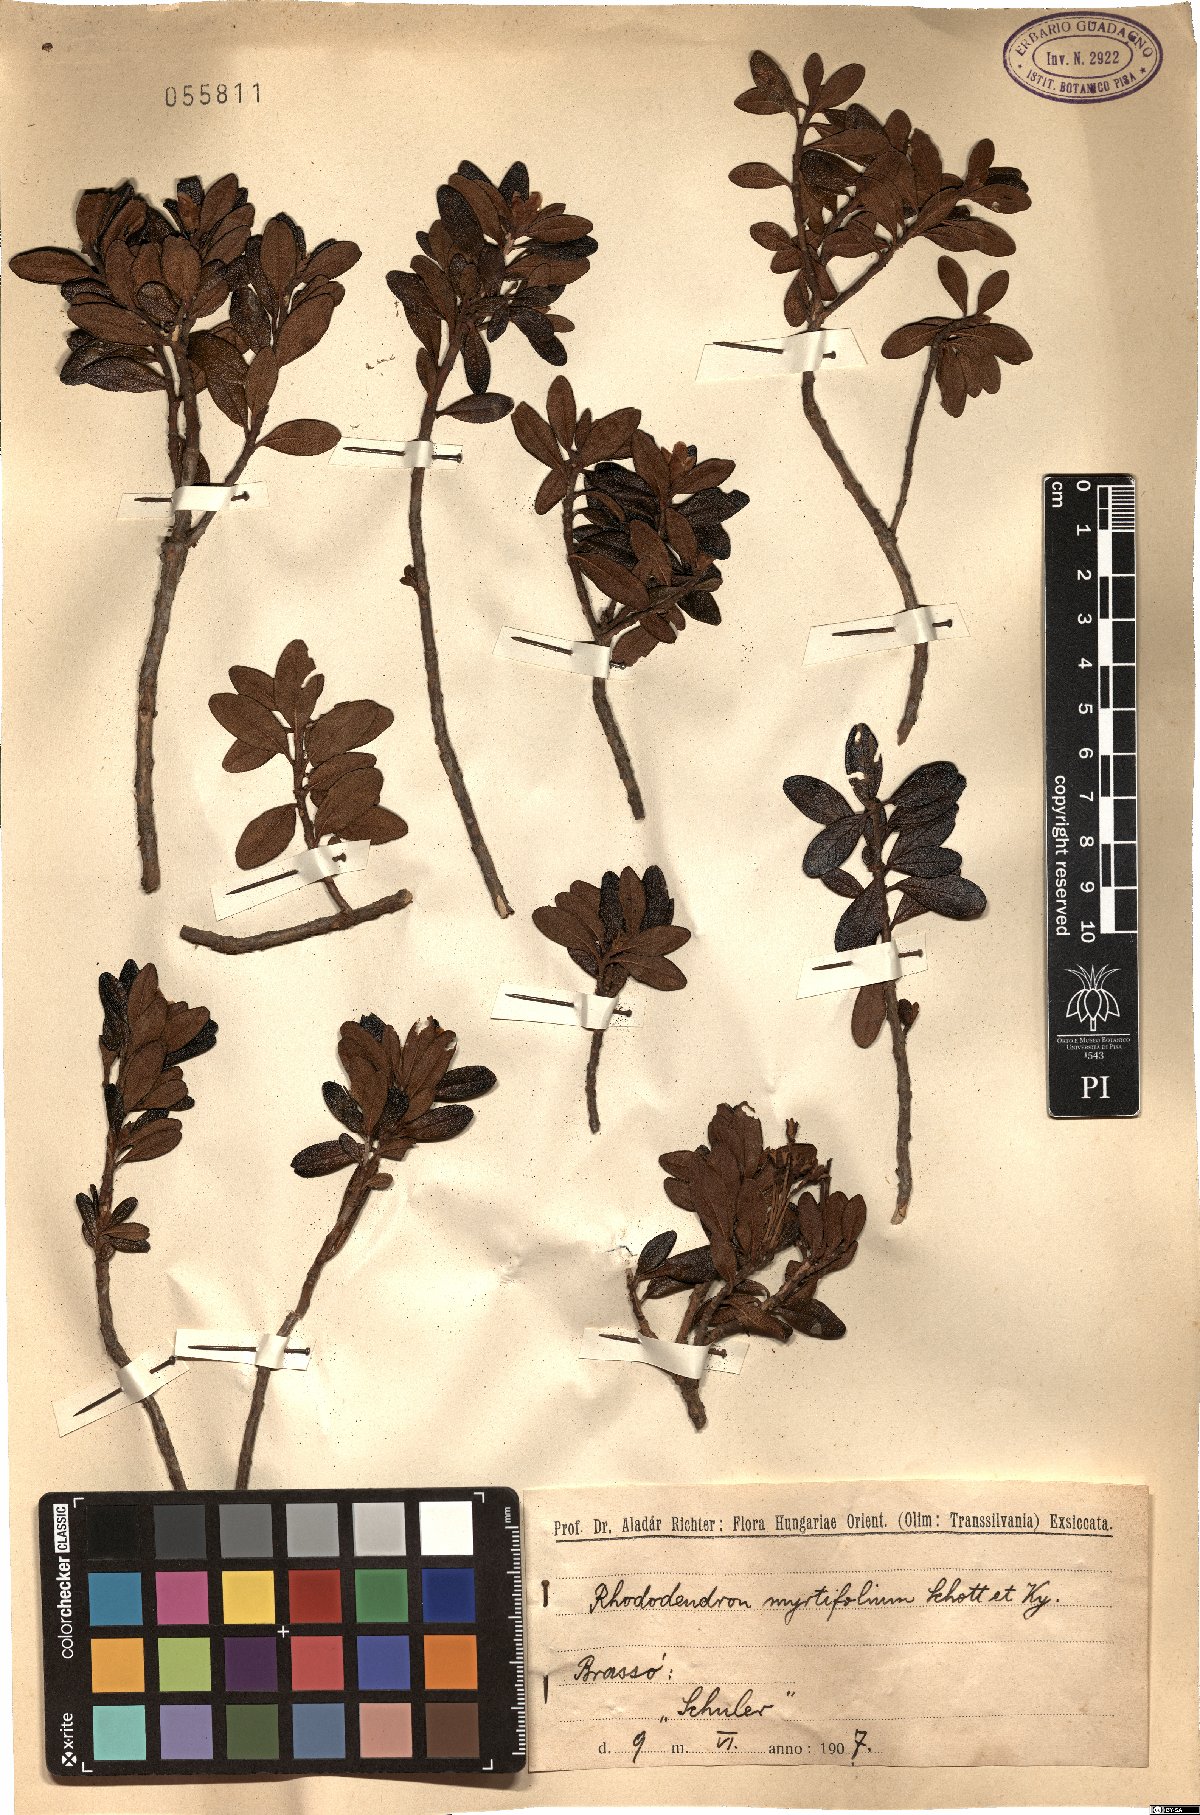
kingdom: Plantae
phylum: Tracheophyta
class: Magnoliopsida
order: Ericales
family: Ericaceae
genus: Rhododendron
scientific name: Rhododendron ponticum
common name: Rhododendron
